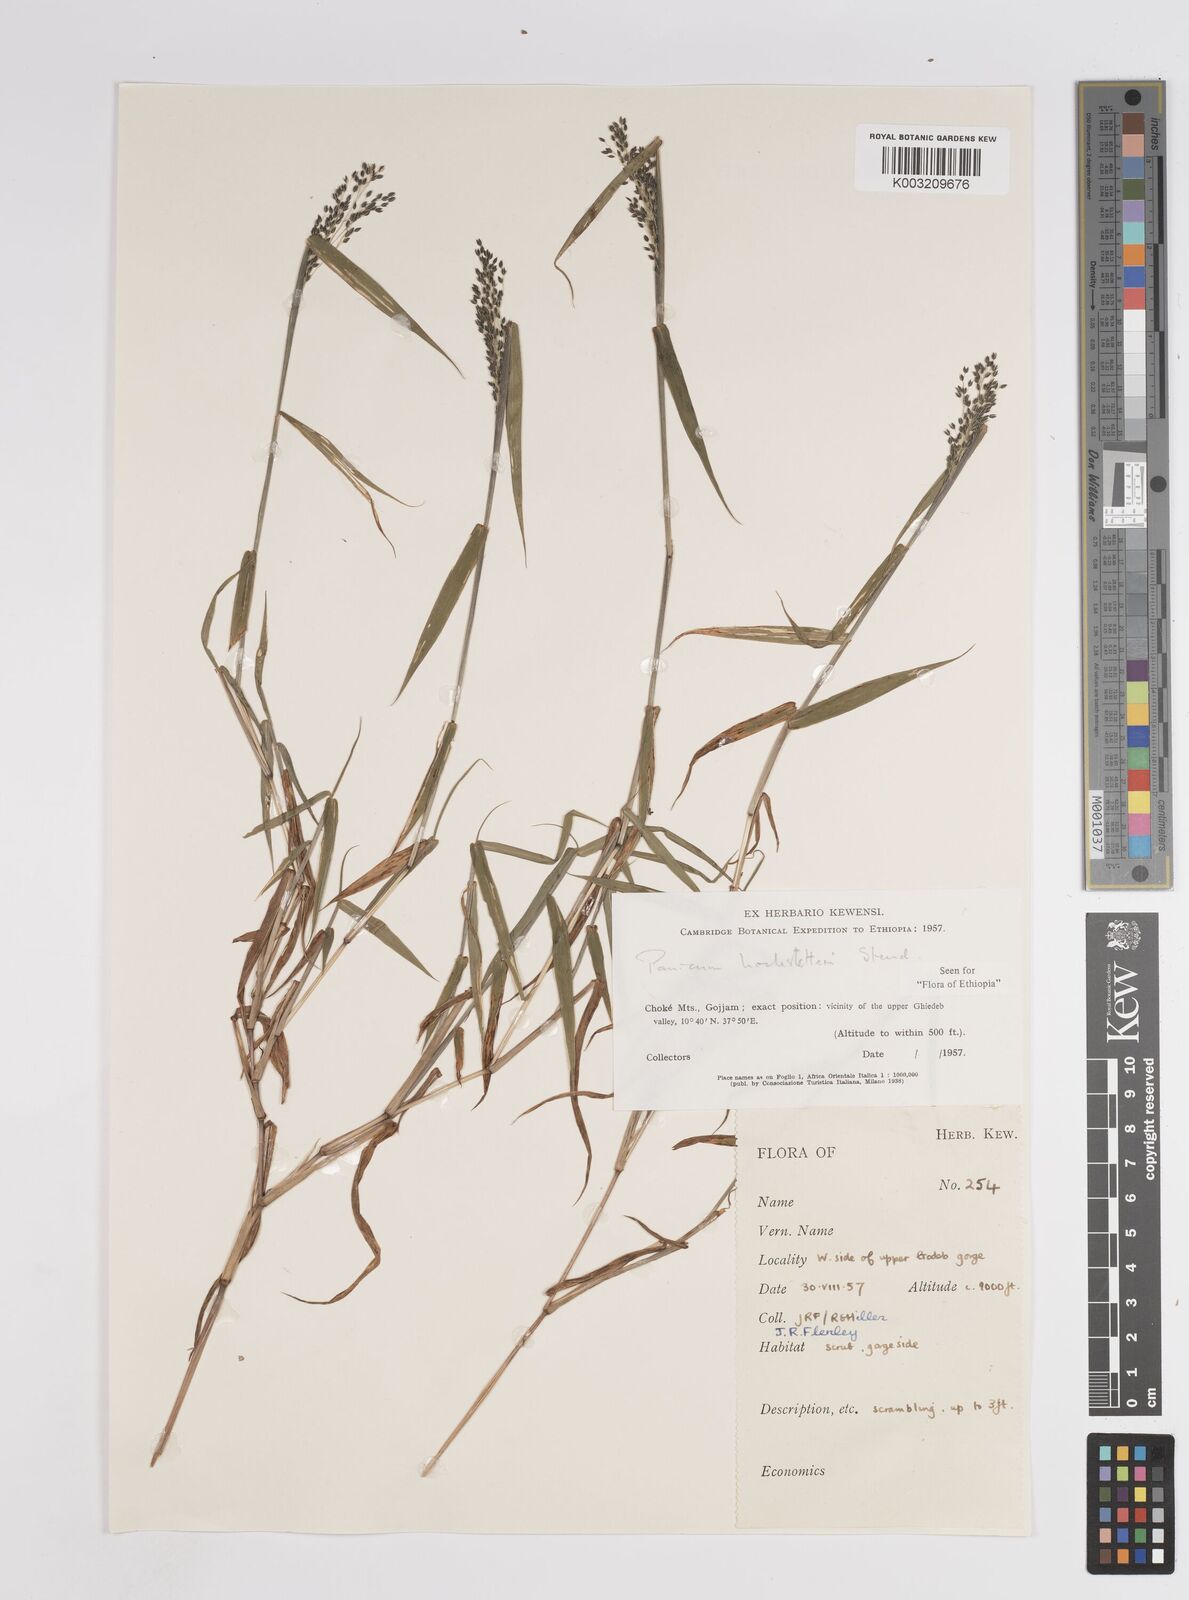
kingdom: Plantae
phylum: Tracheophyta
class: Liliopsida
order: Poales
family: Poaceae
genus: Panicum
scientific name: Panicum hochstetteri
